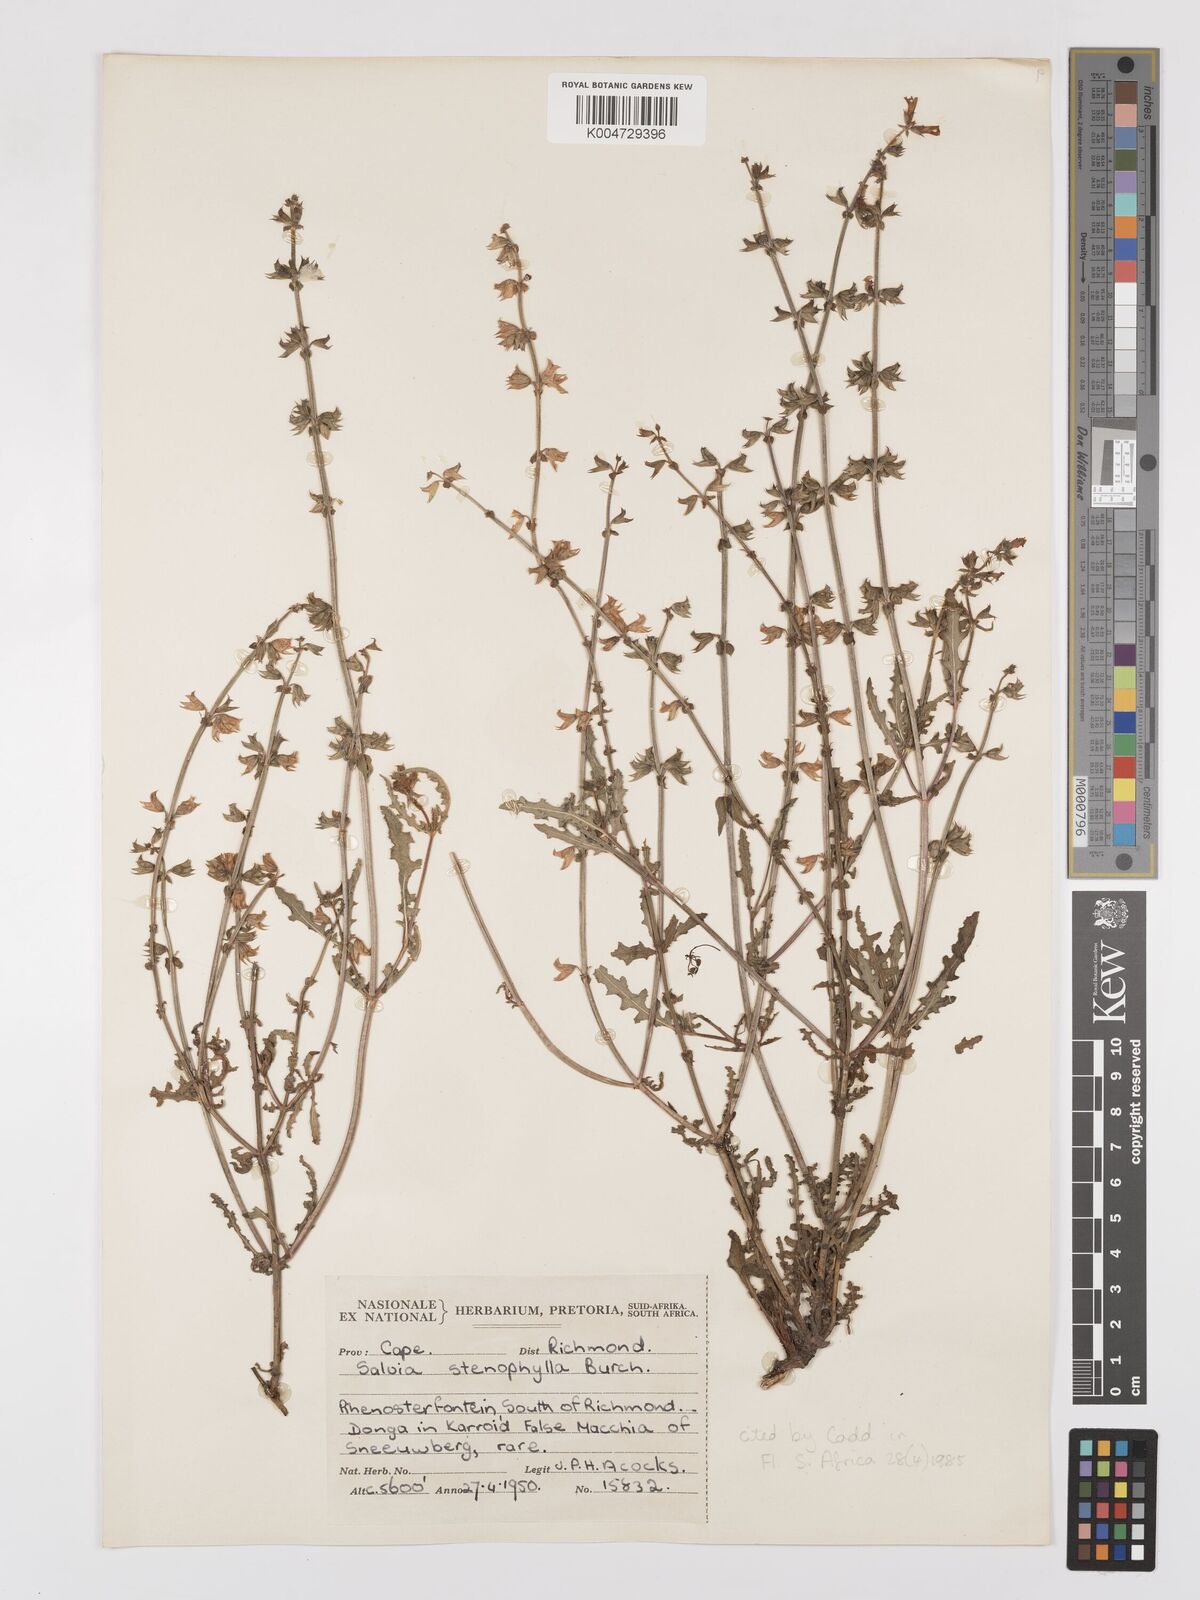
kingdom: Plantae
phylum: Tracheophyta
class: Magnoliopsida
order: Lamiales
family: Lamiaceae
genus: Salvia
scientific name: Salvia stenophylla
